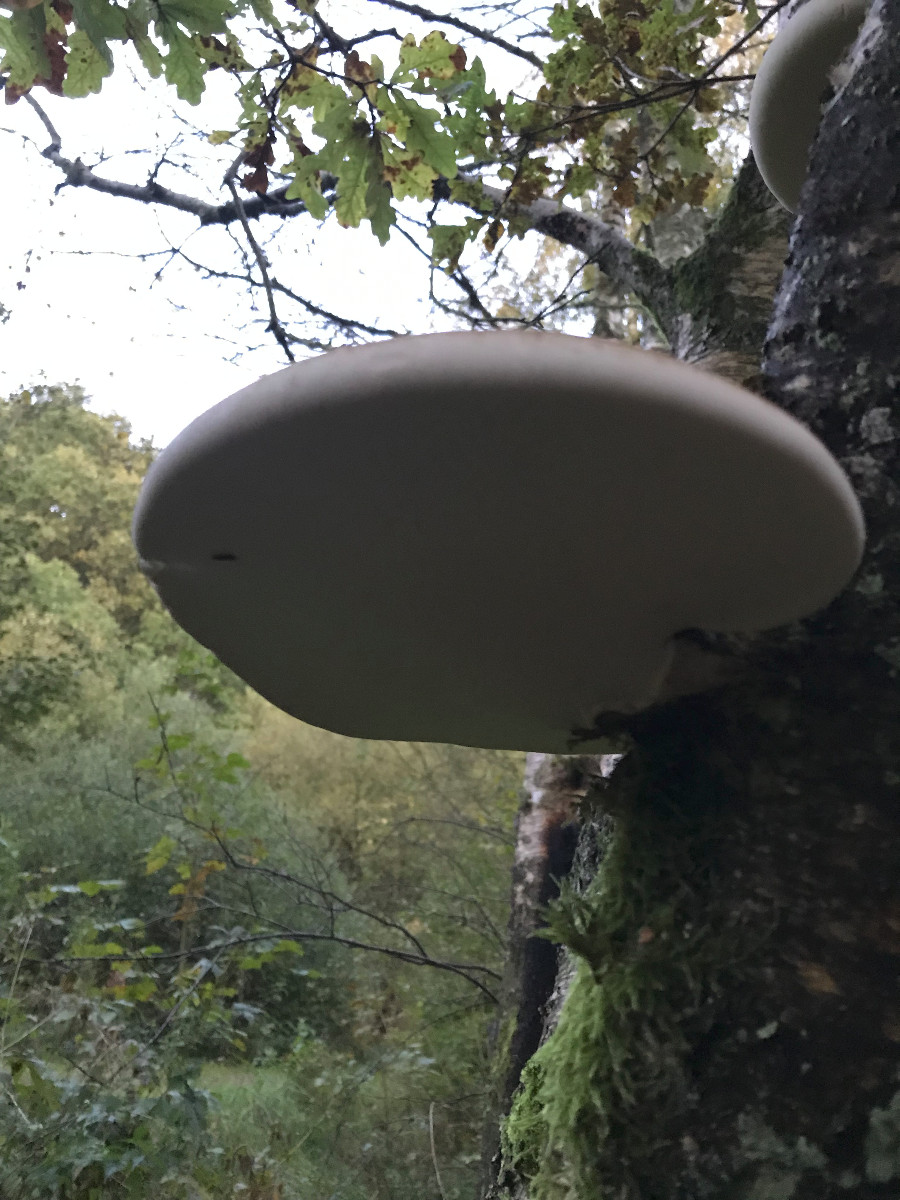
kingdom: Fungi
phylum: Basidiomycota
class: Agaricomycetes
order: Polyporales
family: Fomitopsidaceae
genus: Fomitopsis
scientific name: Fomitopsis betulina
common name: birkeporesvamp
